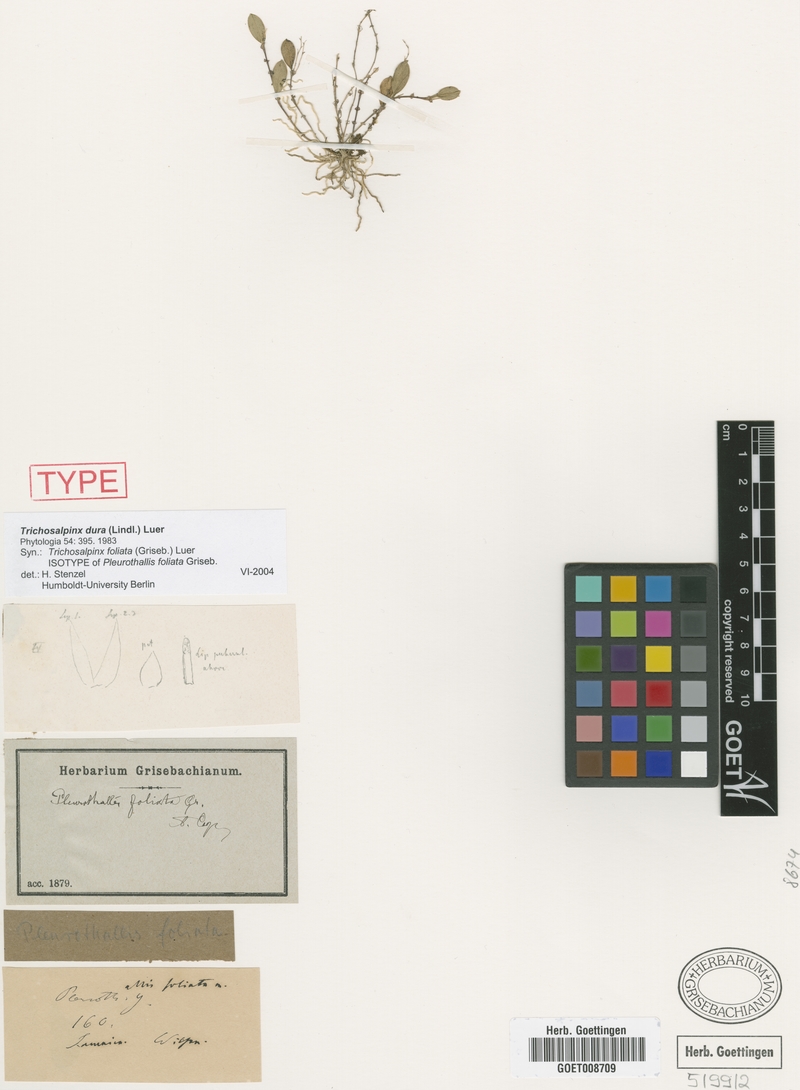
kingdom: Plantae
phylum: Tracheophyta
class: Liliopsida
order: Asparagales
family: Orchidaceae
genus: Trichosalpinx
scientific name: Trichosalpinx dura
